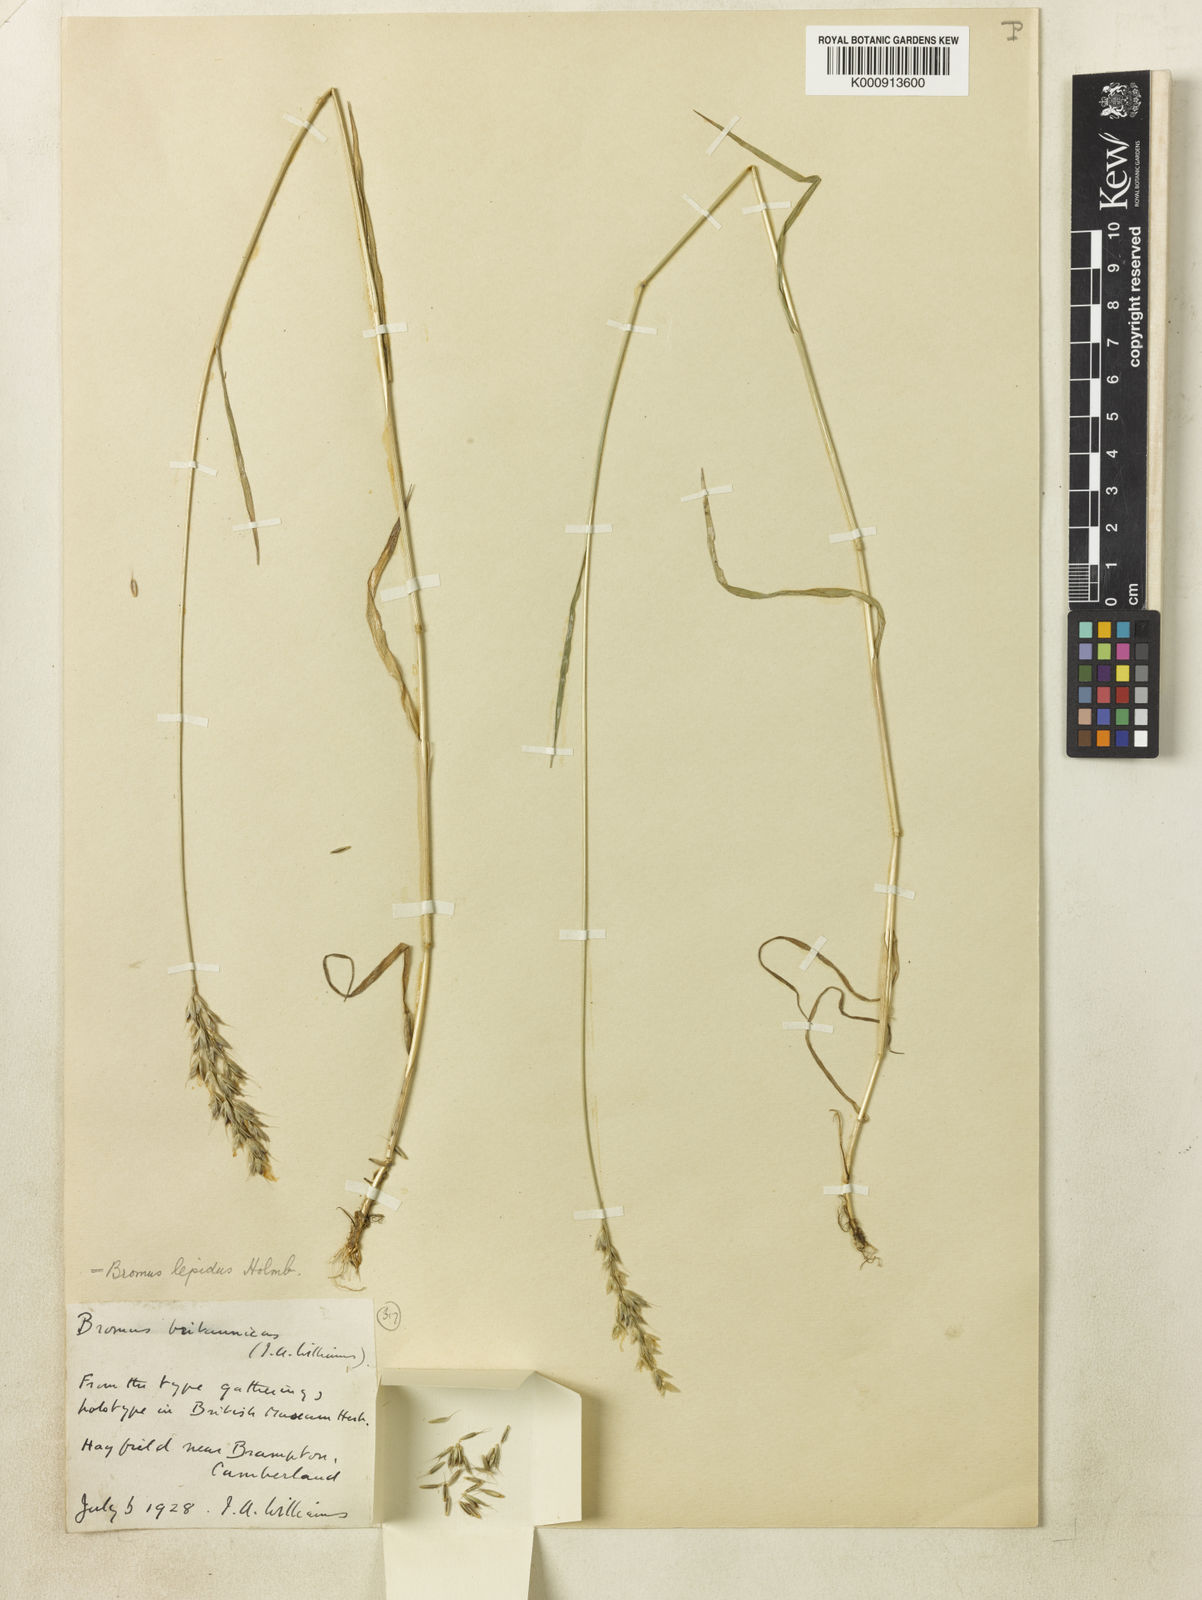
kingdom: Plantae
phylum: Tracheophyta
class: Liliopsida
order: Poales
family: Poaceae
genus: Bromus
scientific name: Bromus lepidus
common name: Slender soft-brome
